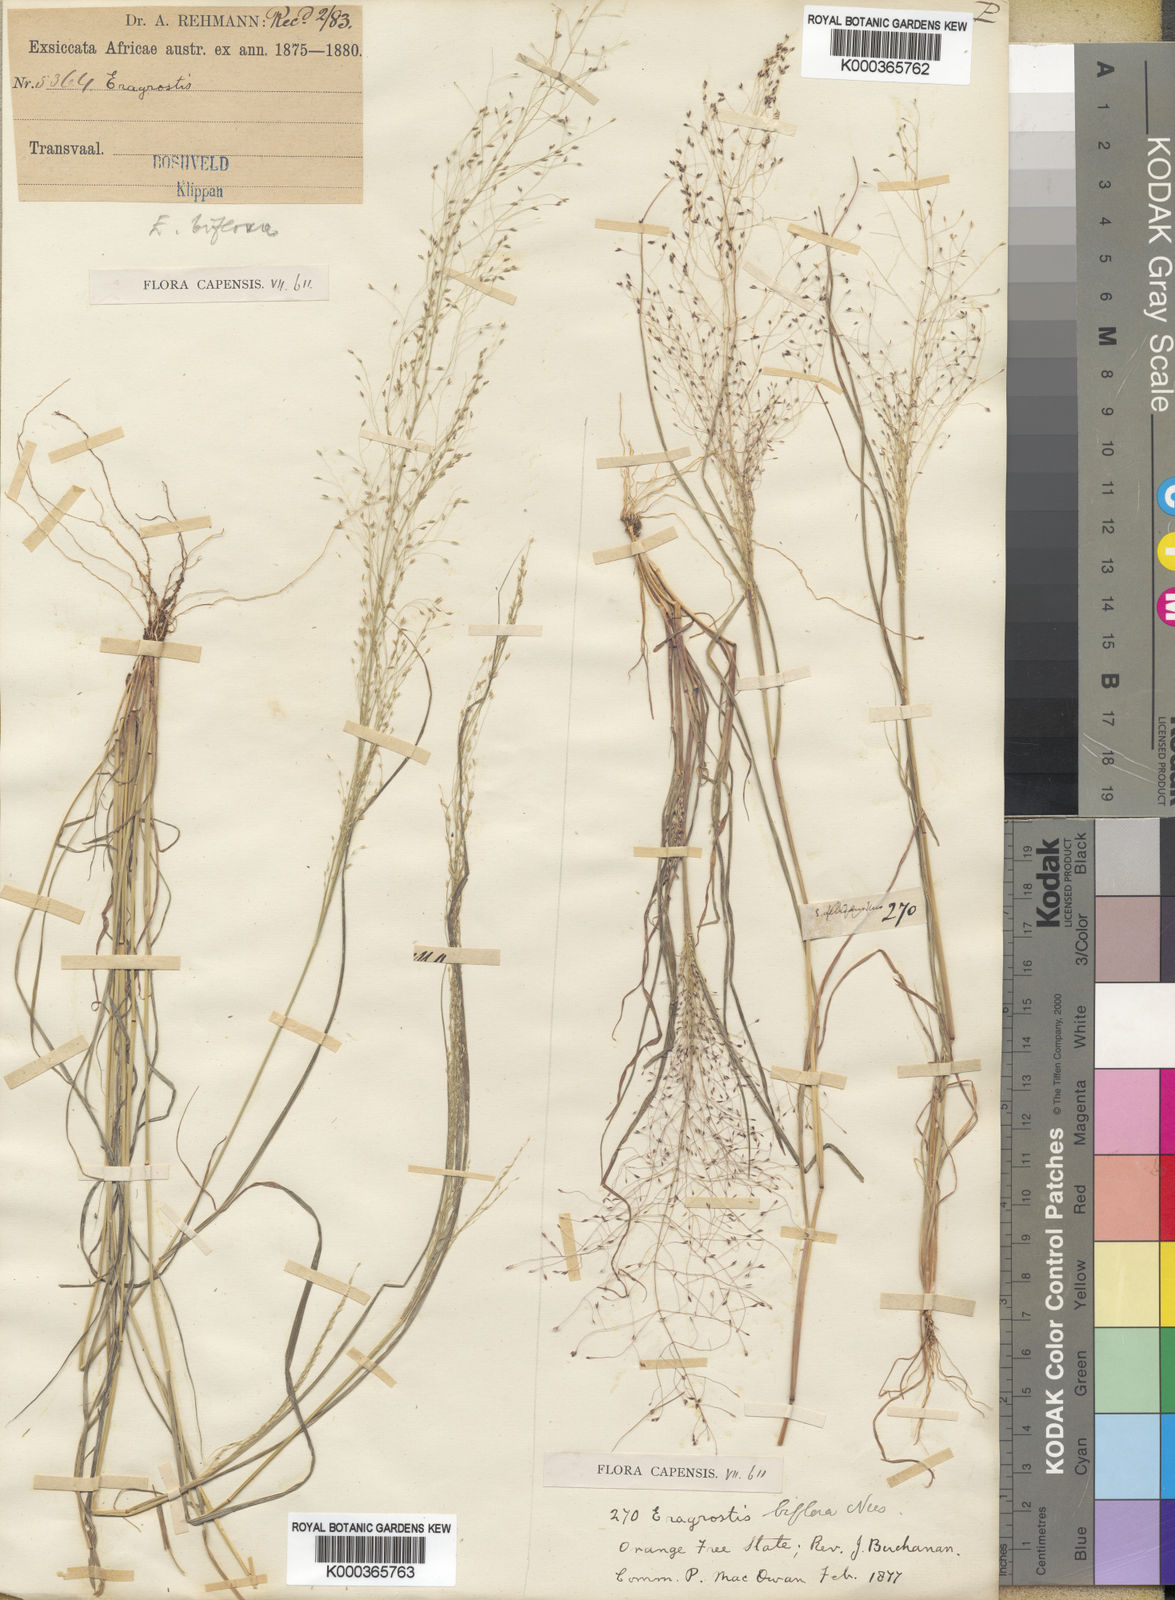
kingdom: Plantae
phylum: Tracheophyta
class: Liliopsida
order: Poales
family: Poaceae
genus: Eragrostis
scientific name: Eragrostis
